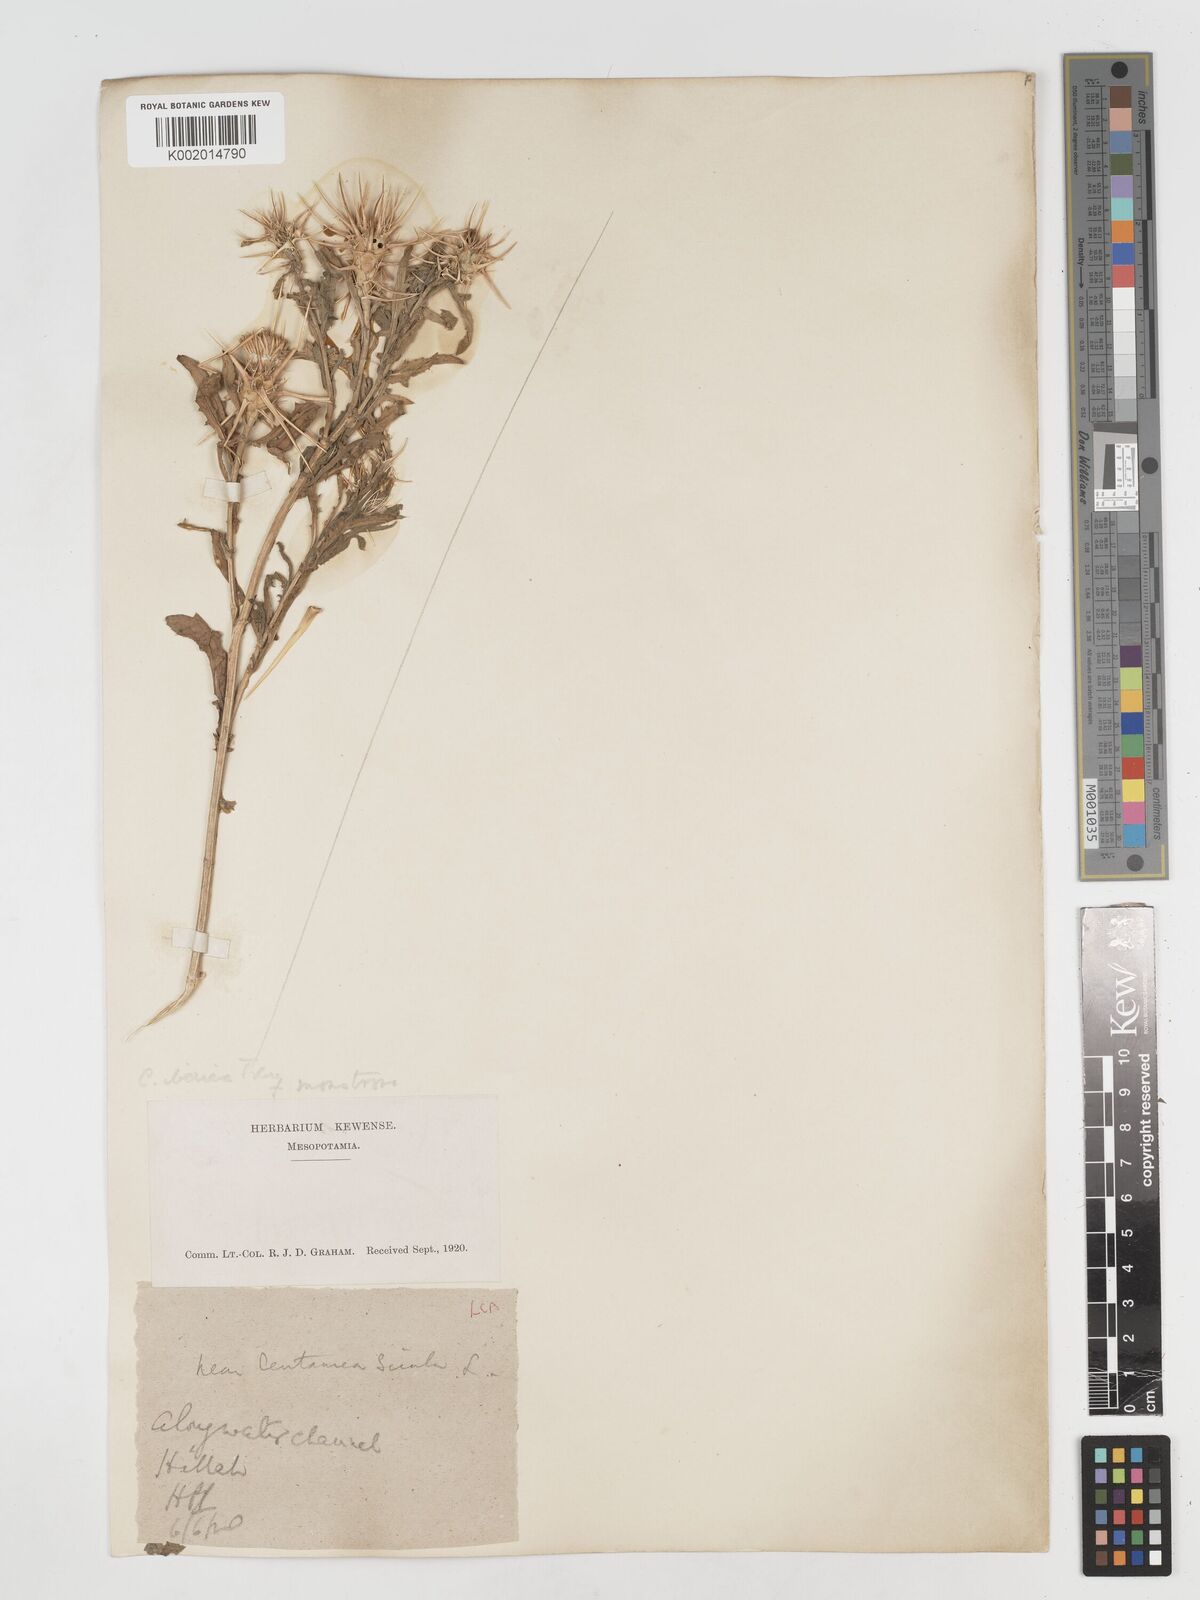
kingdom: Plantae
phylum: Tracheophyta
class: Magnoliopsida
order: Asterales
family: Asteraceae
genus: Centaurea
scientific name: Centaurea iberica
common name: Iberian knapweed
